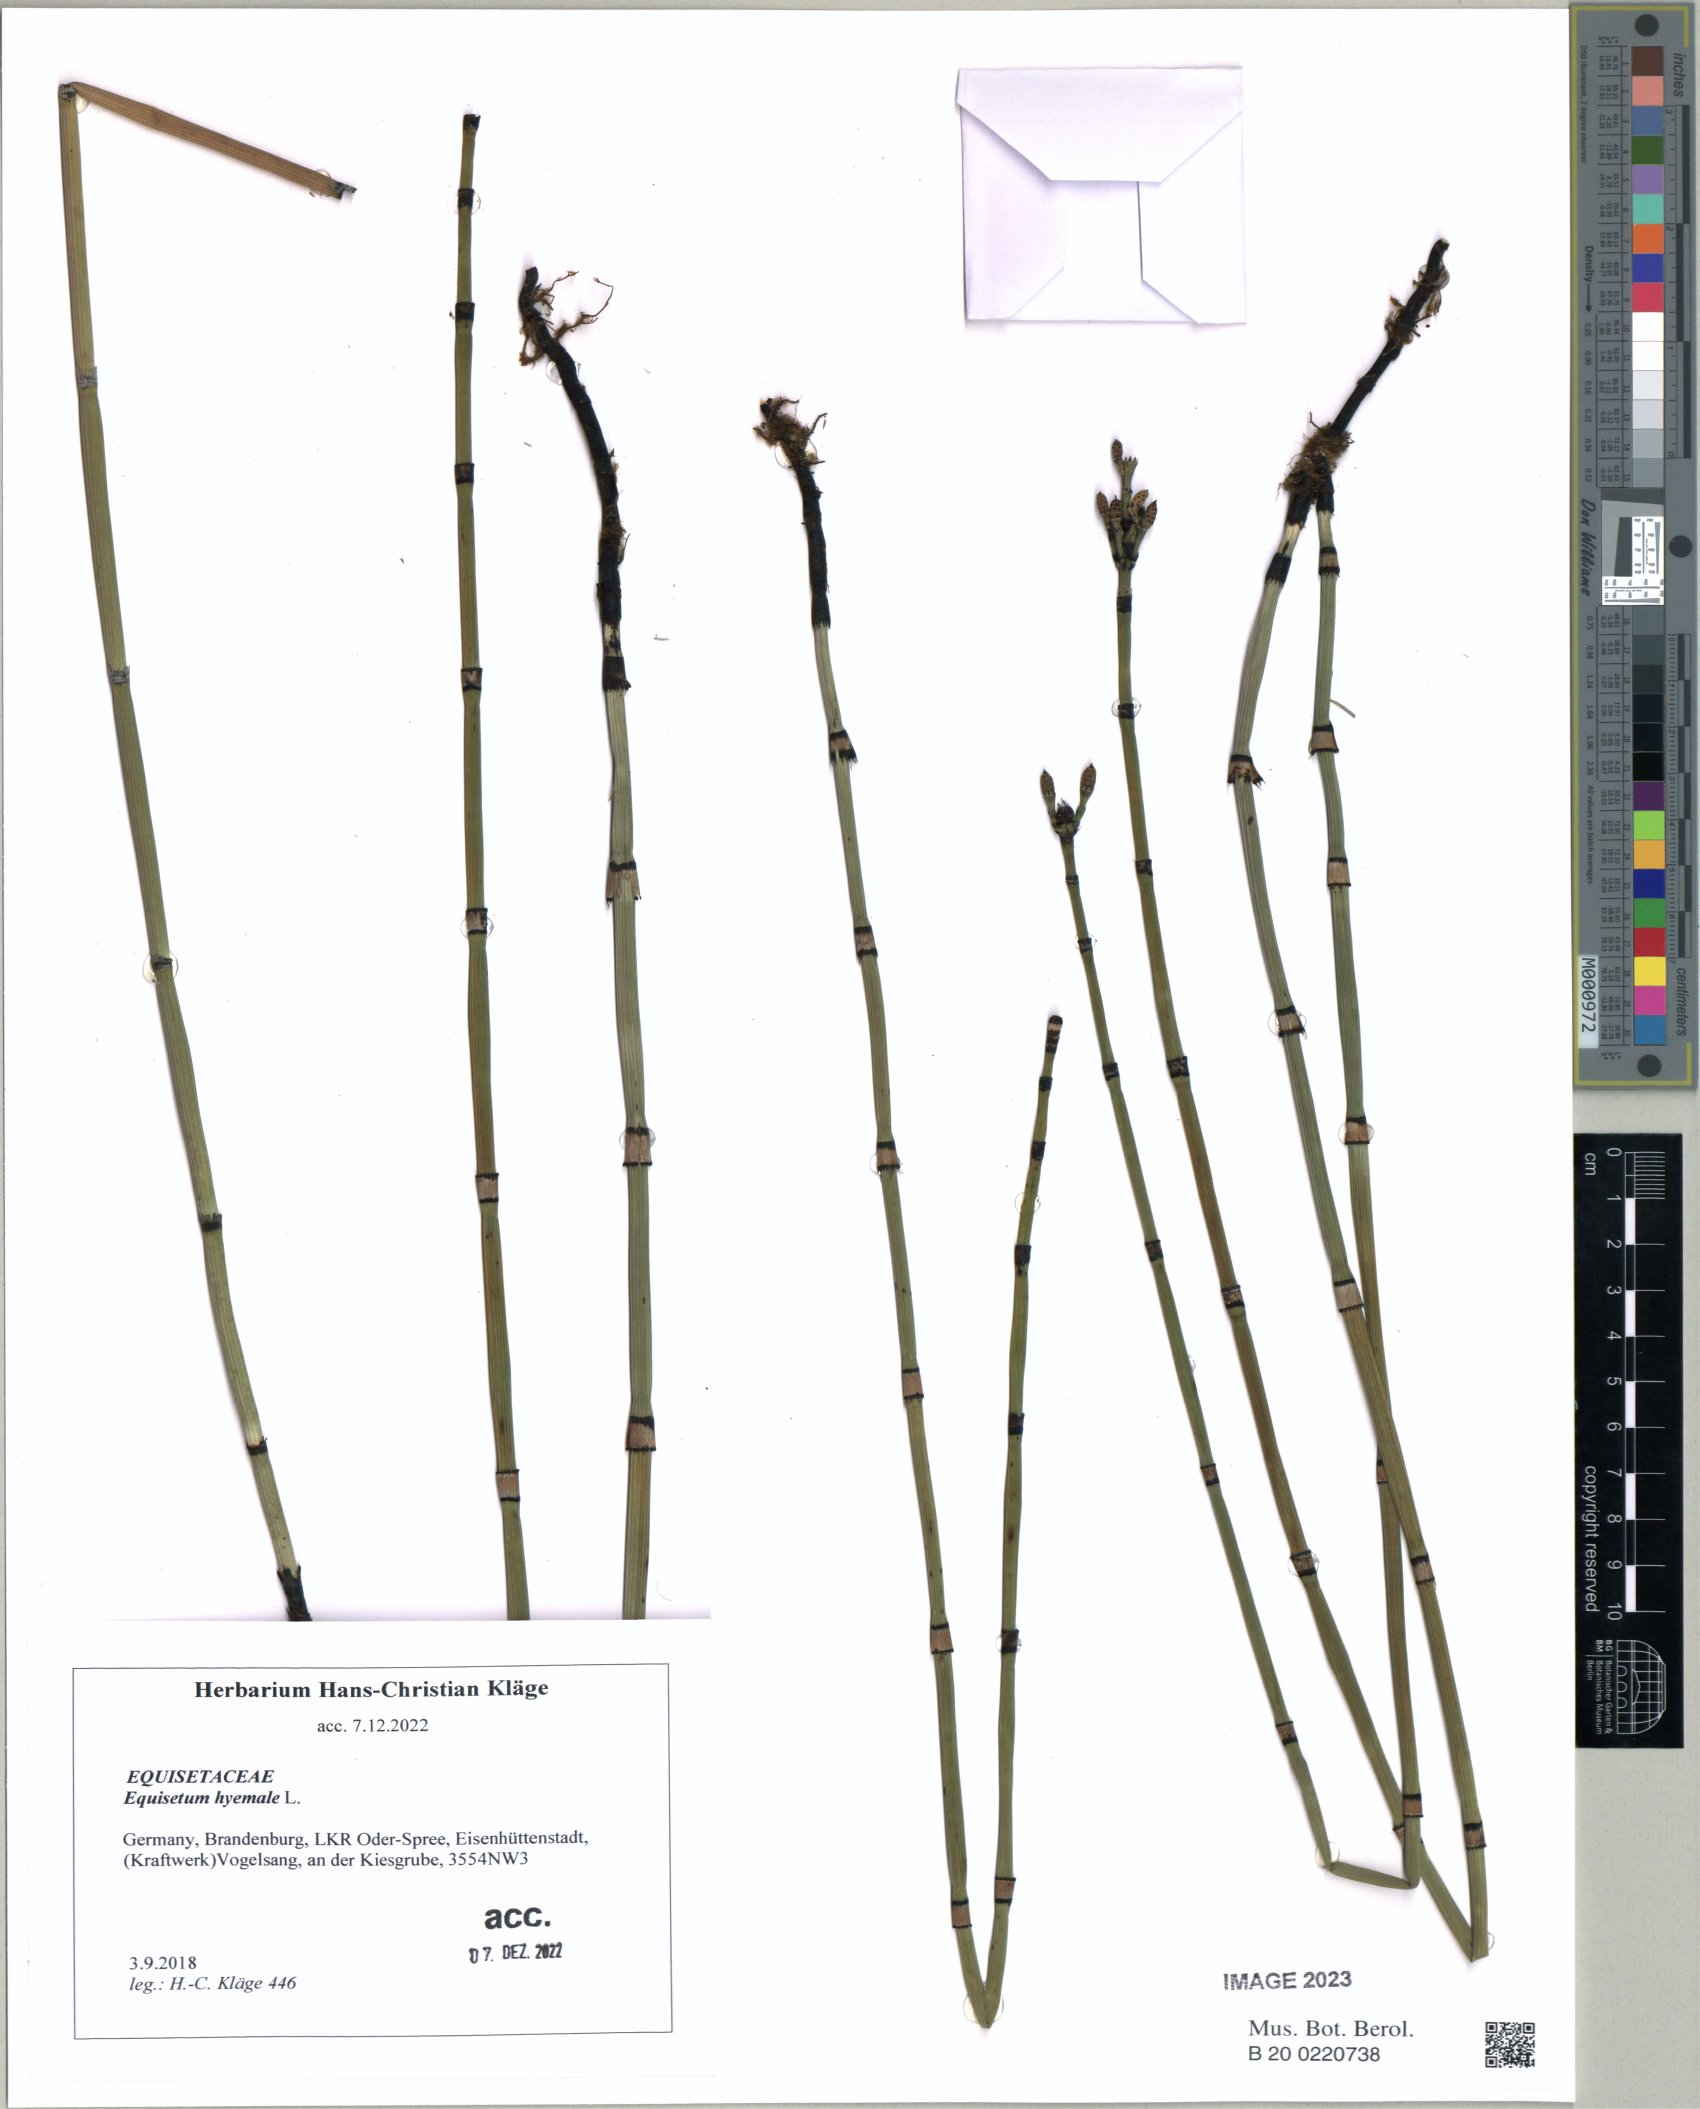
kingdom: Plantae
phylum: Tracheophyta
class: Polypodiopsida
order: Equisetales
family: Equisetaceae
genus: Equisetum
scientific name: Equisetum hyemale
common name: Rough horsetail
